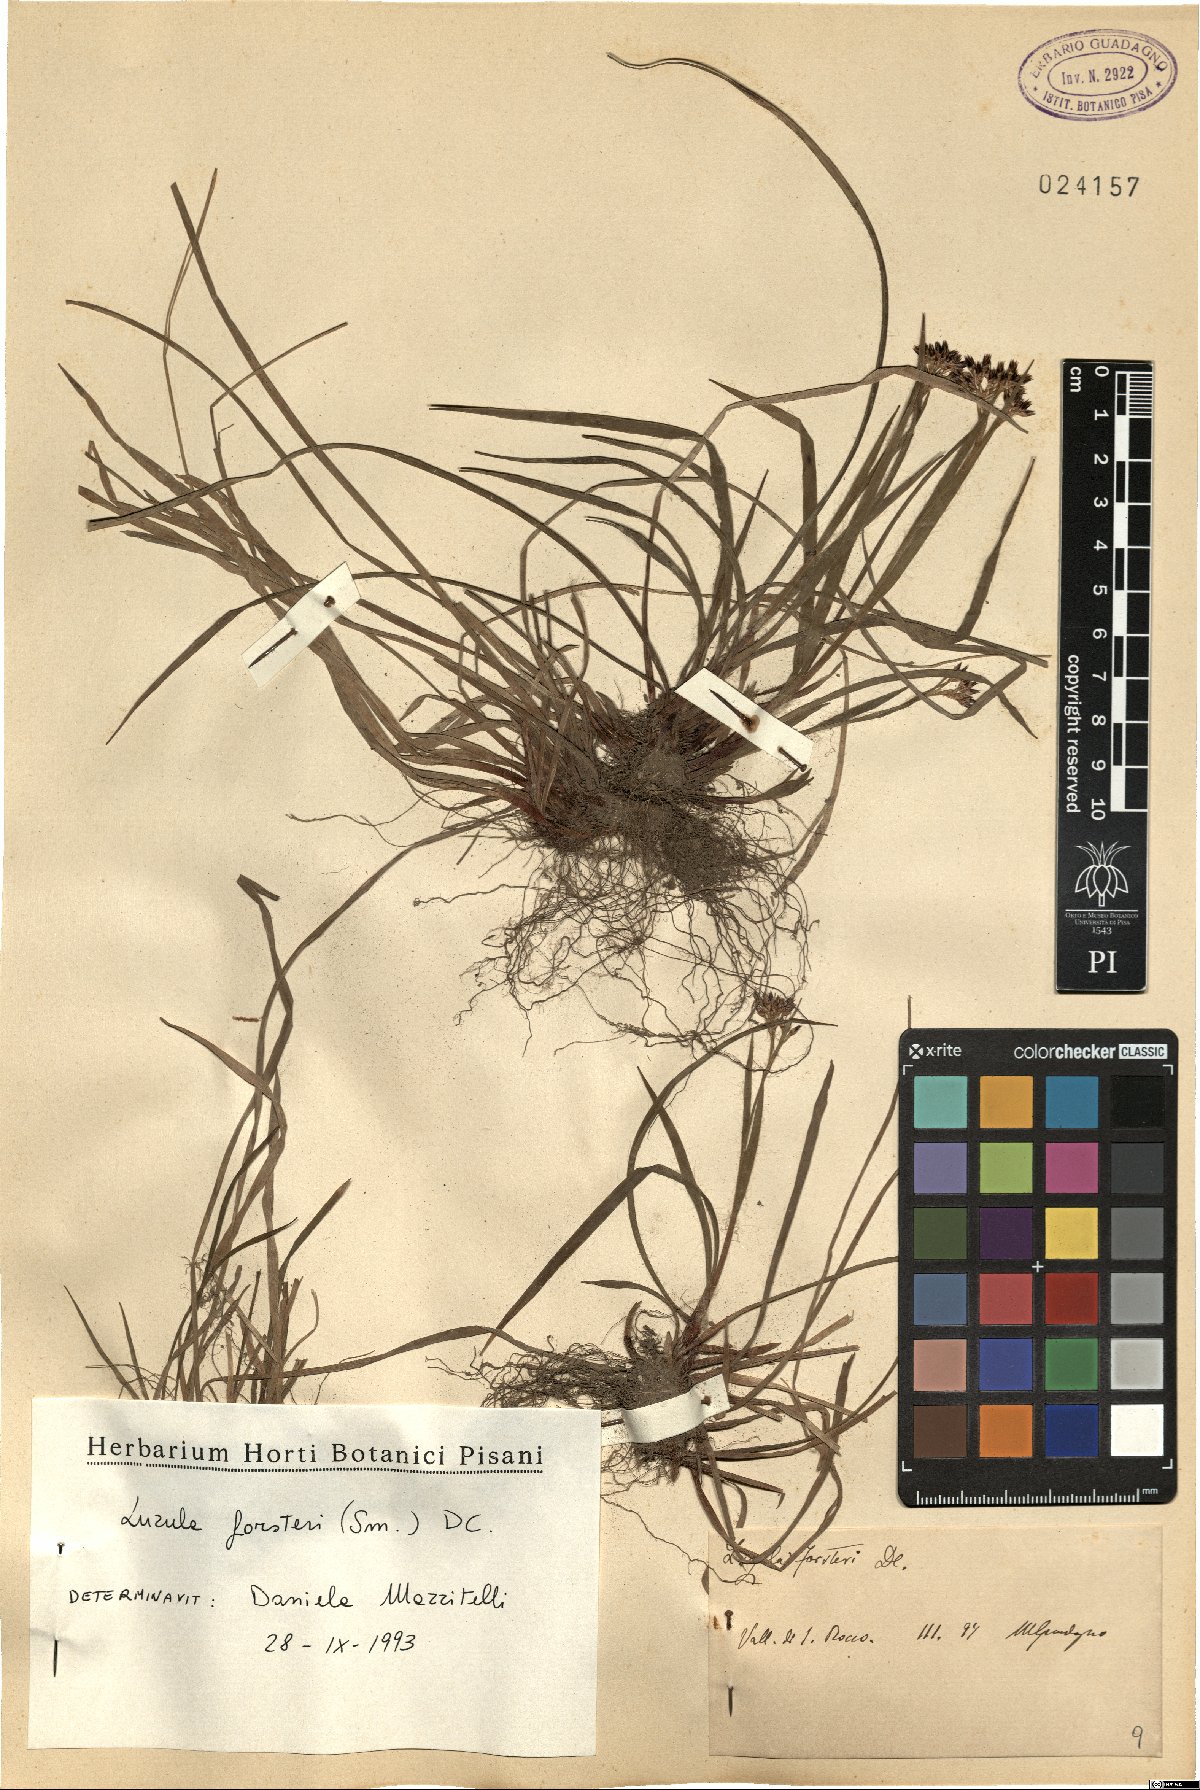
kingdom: Plantae
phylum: Tracheophyta
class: Liliopsida
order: Poales
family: Juncaceae
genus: Luzula
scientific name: Luzula forsteri
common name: Southern wood-rush
